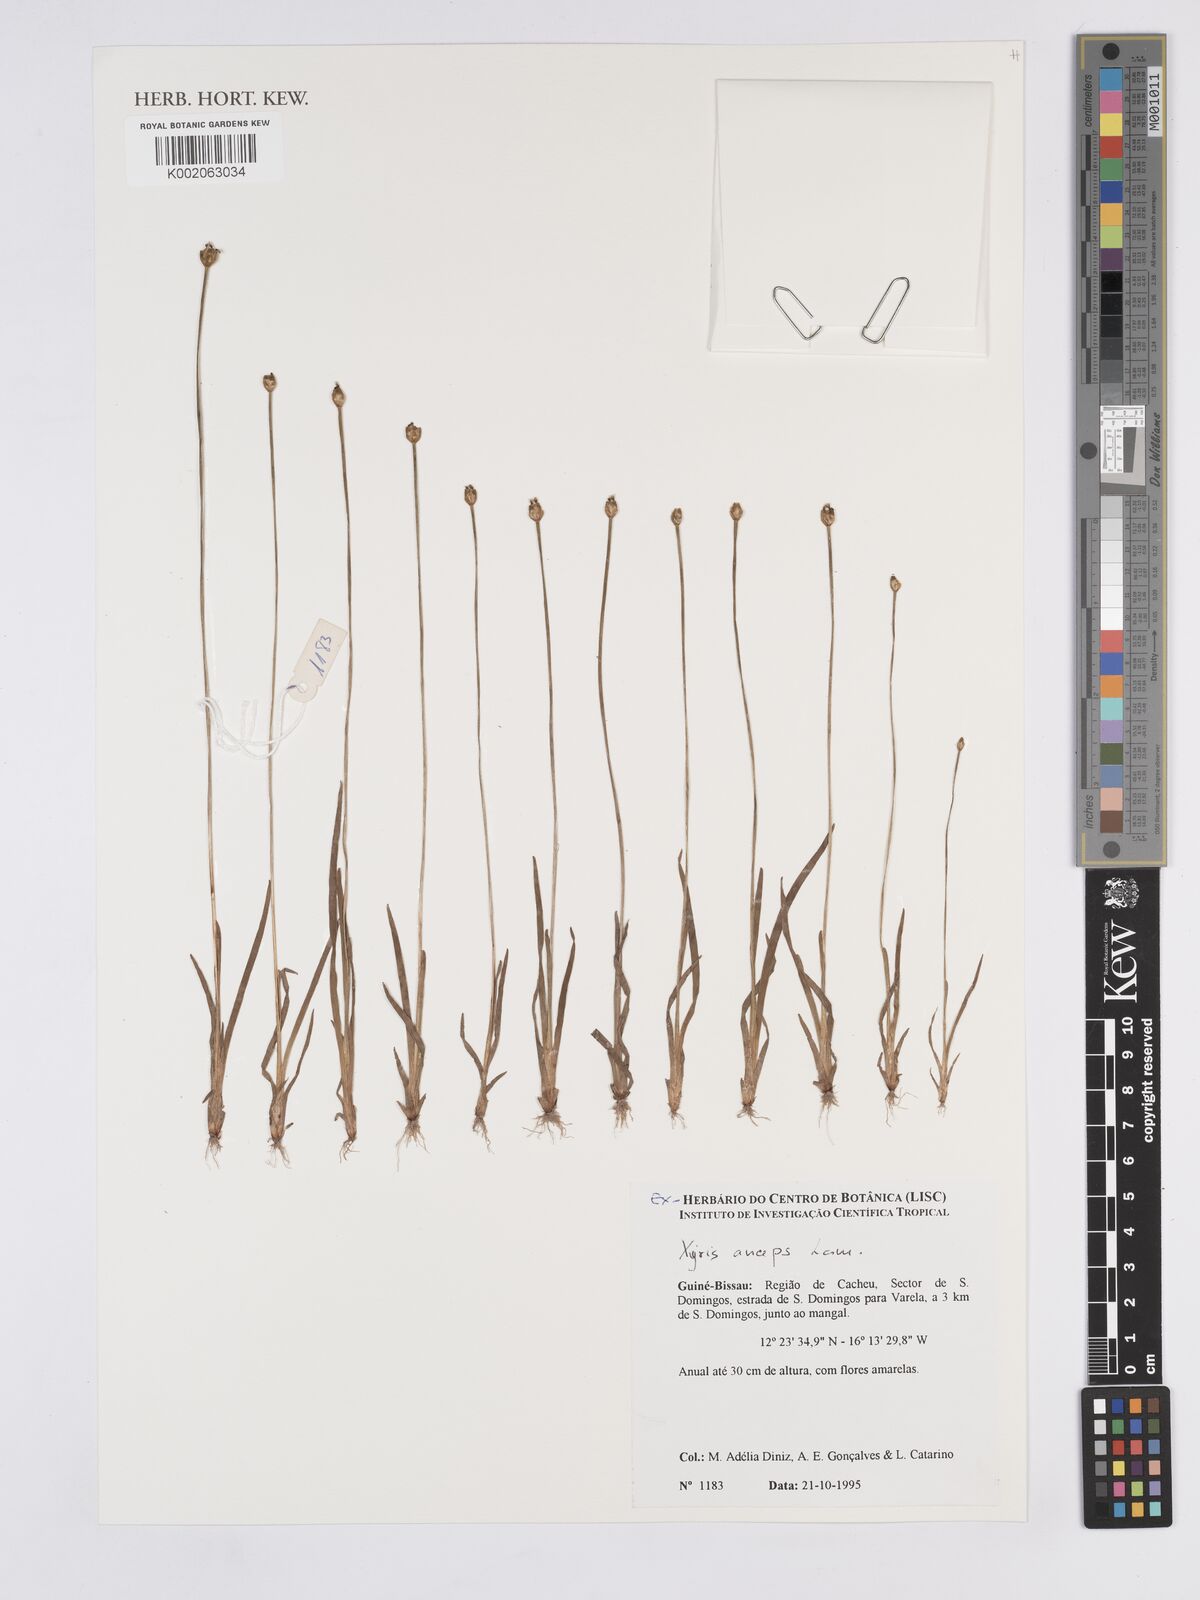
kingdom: Plantae
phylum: Tracheophyta
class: Liliopsida
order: Poales
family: Xyridaceae
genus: Xyris
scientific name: Xyris anceps
